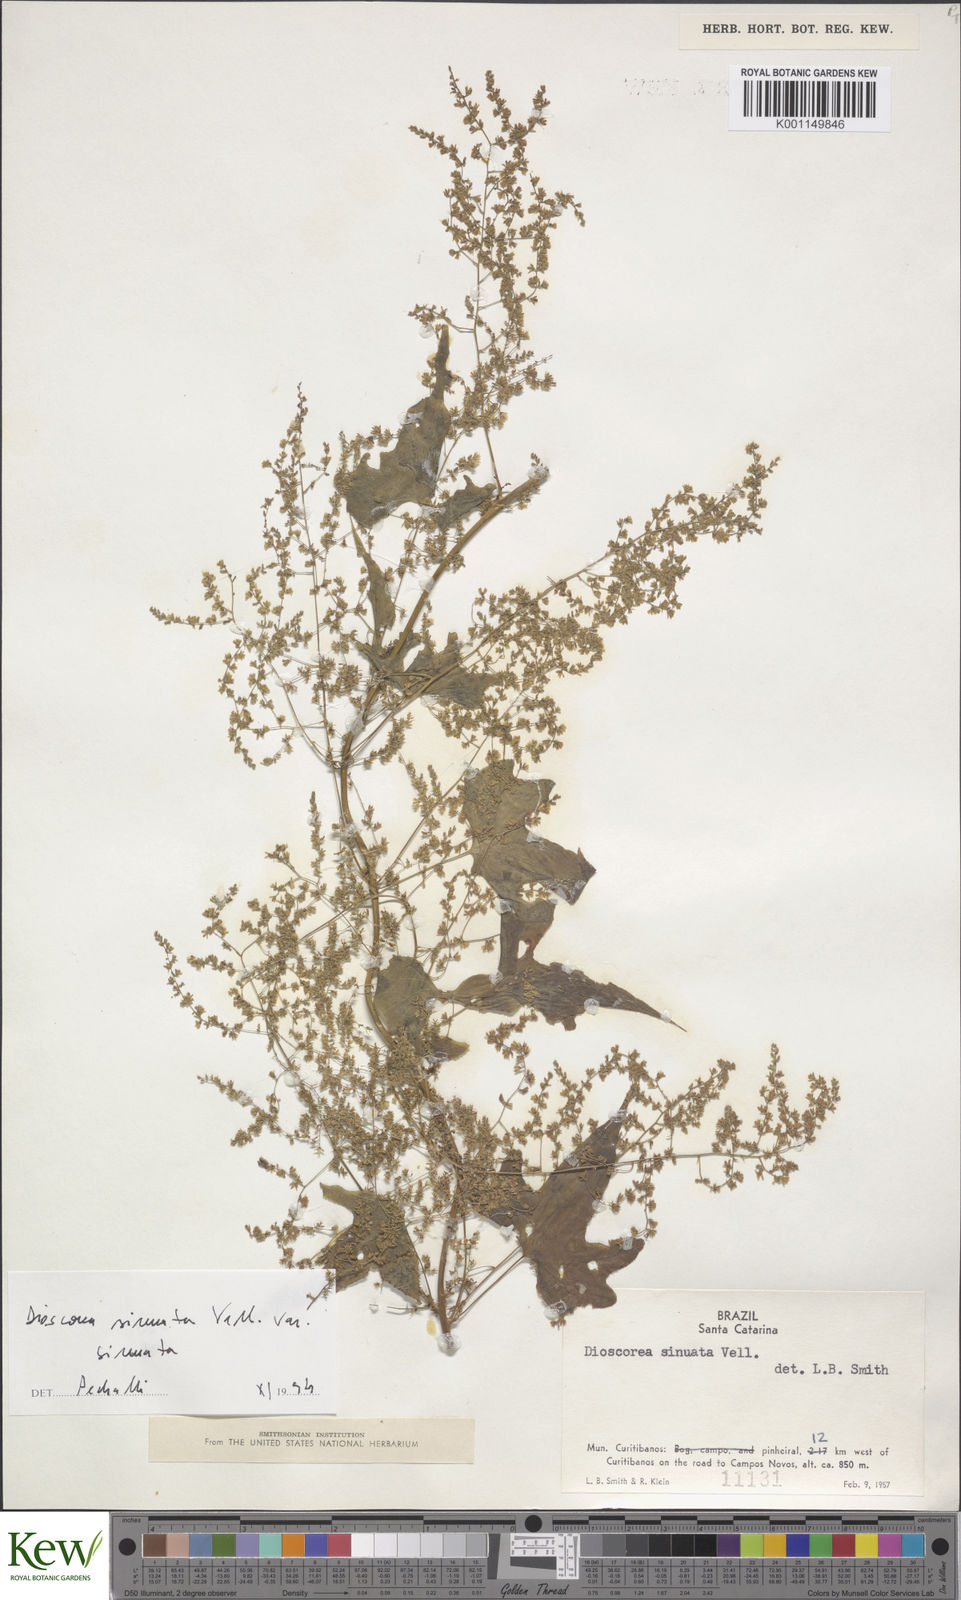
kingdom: Plantae
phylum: Tracheophyta
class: Liliopsida
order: Dioscoreales
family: Dioscoreaceae
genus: Dioscorea
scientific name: Dioscorea sinuata
